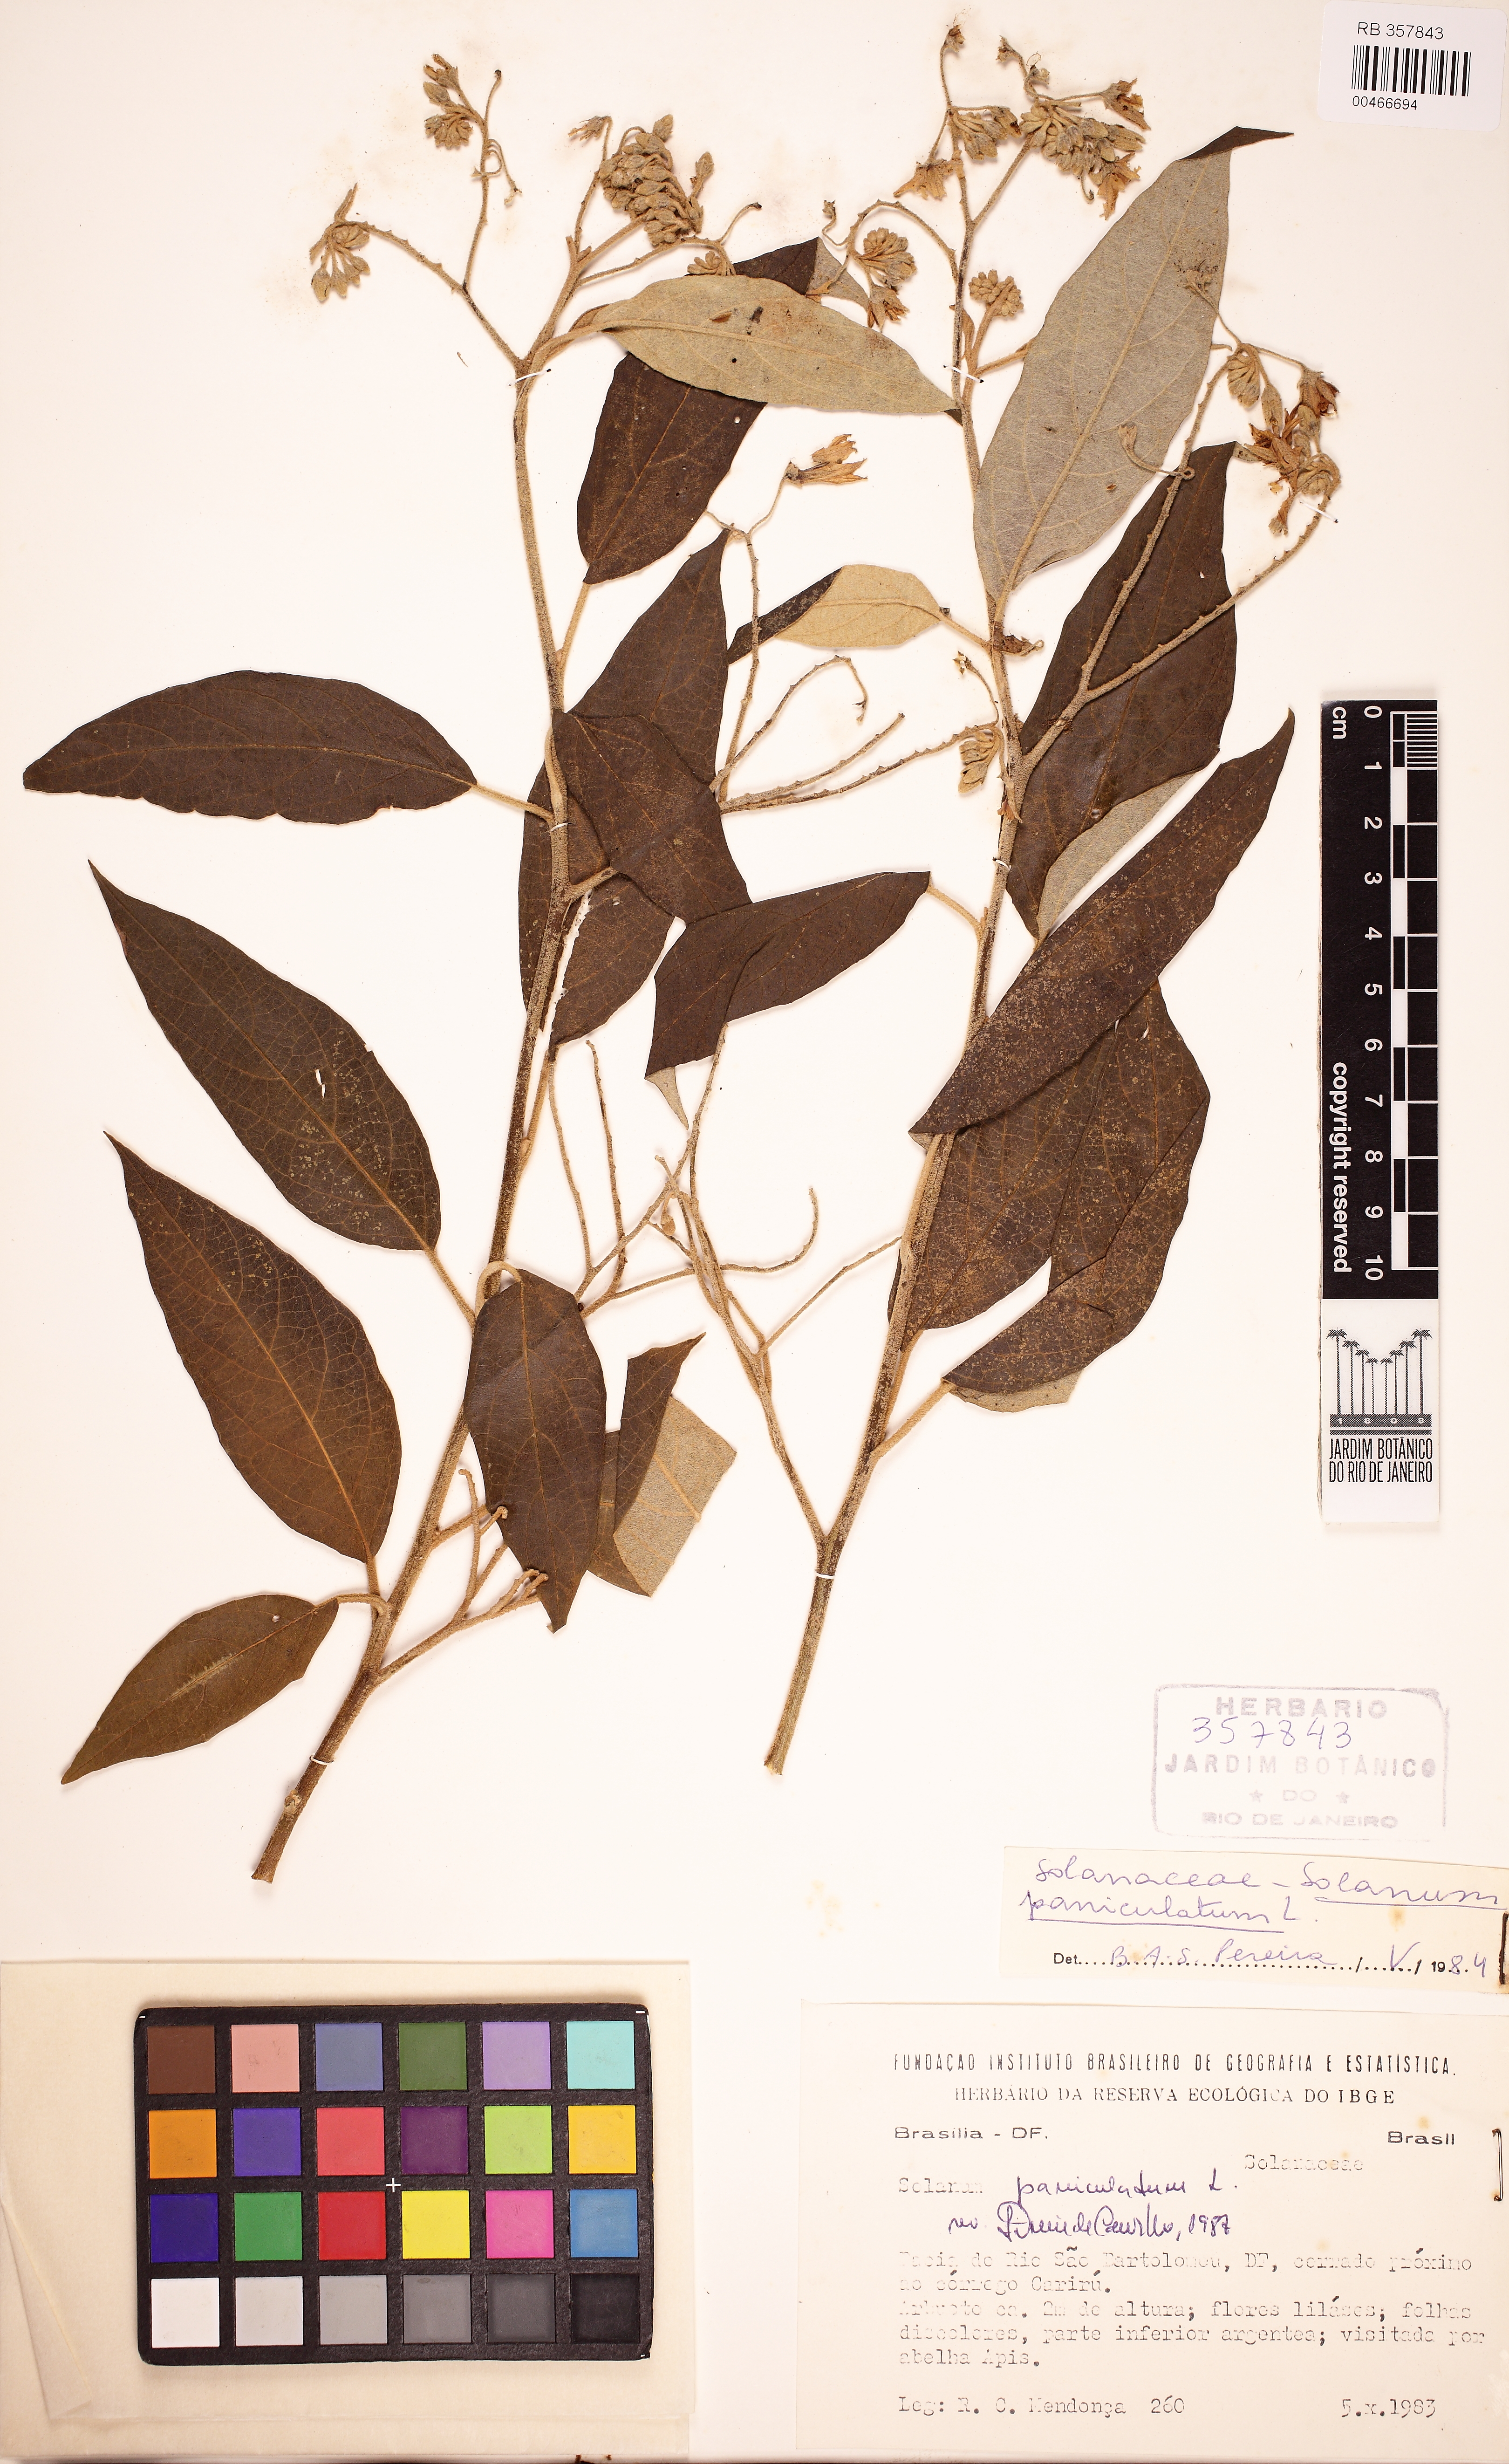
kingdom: Plantae
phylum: Tracheophyta
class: Magnoliopsida
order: Solanales
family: Solanaceae
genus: Solanum
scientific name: Solanum paniculatum
